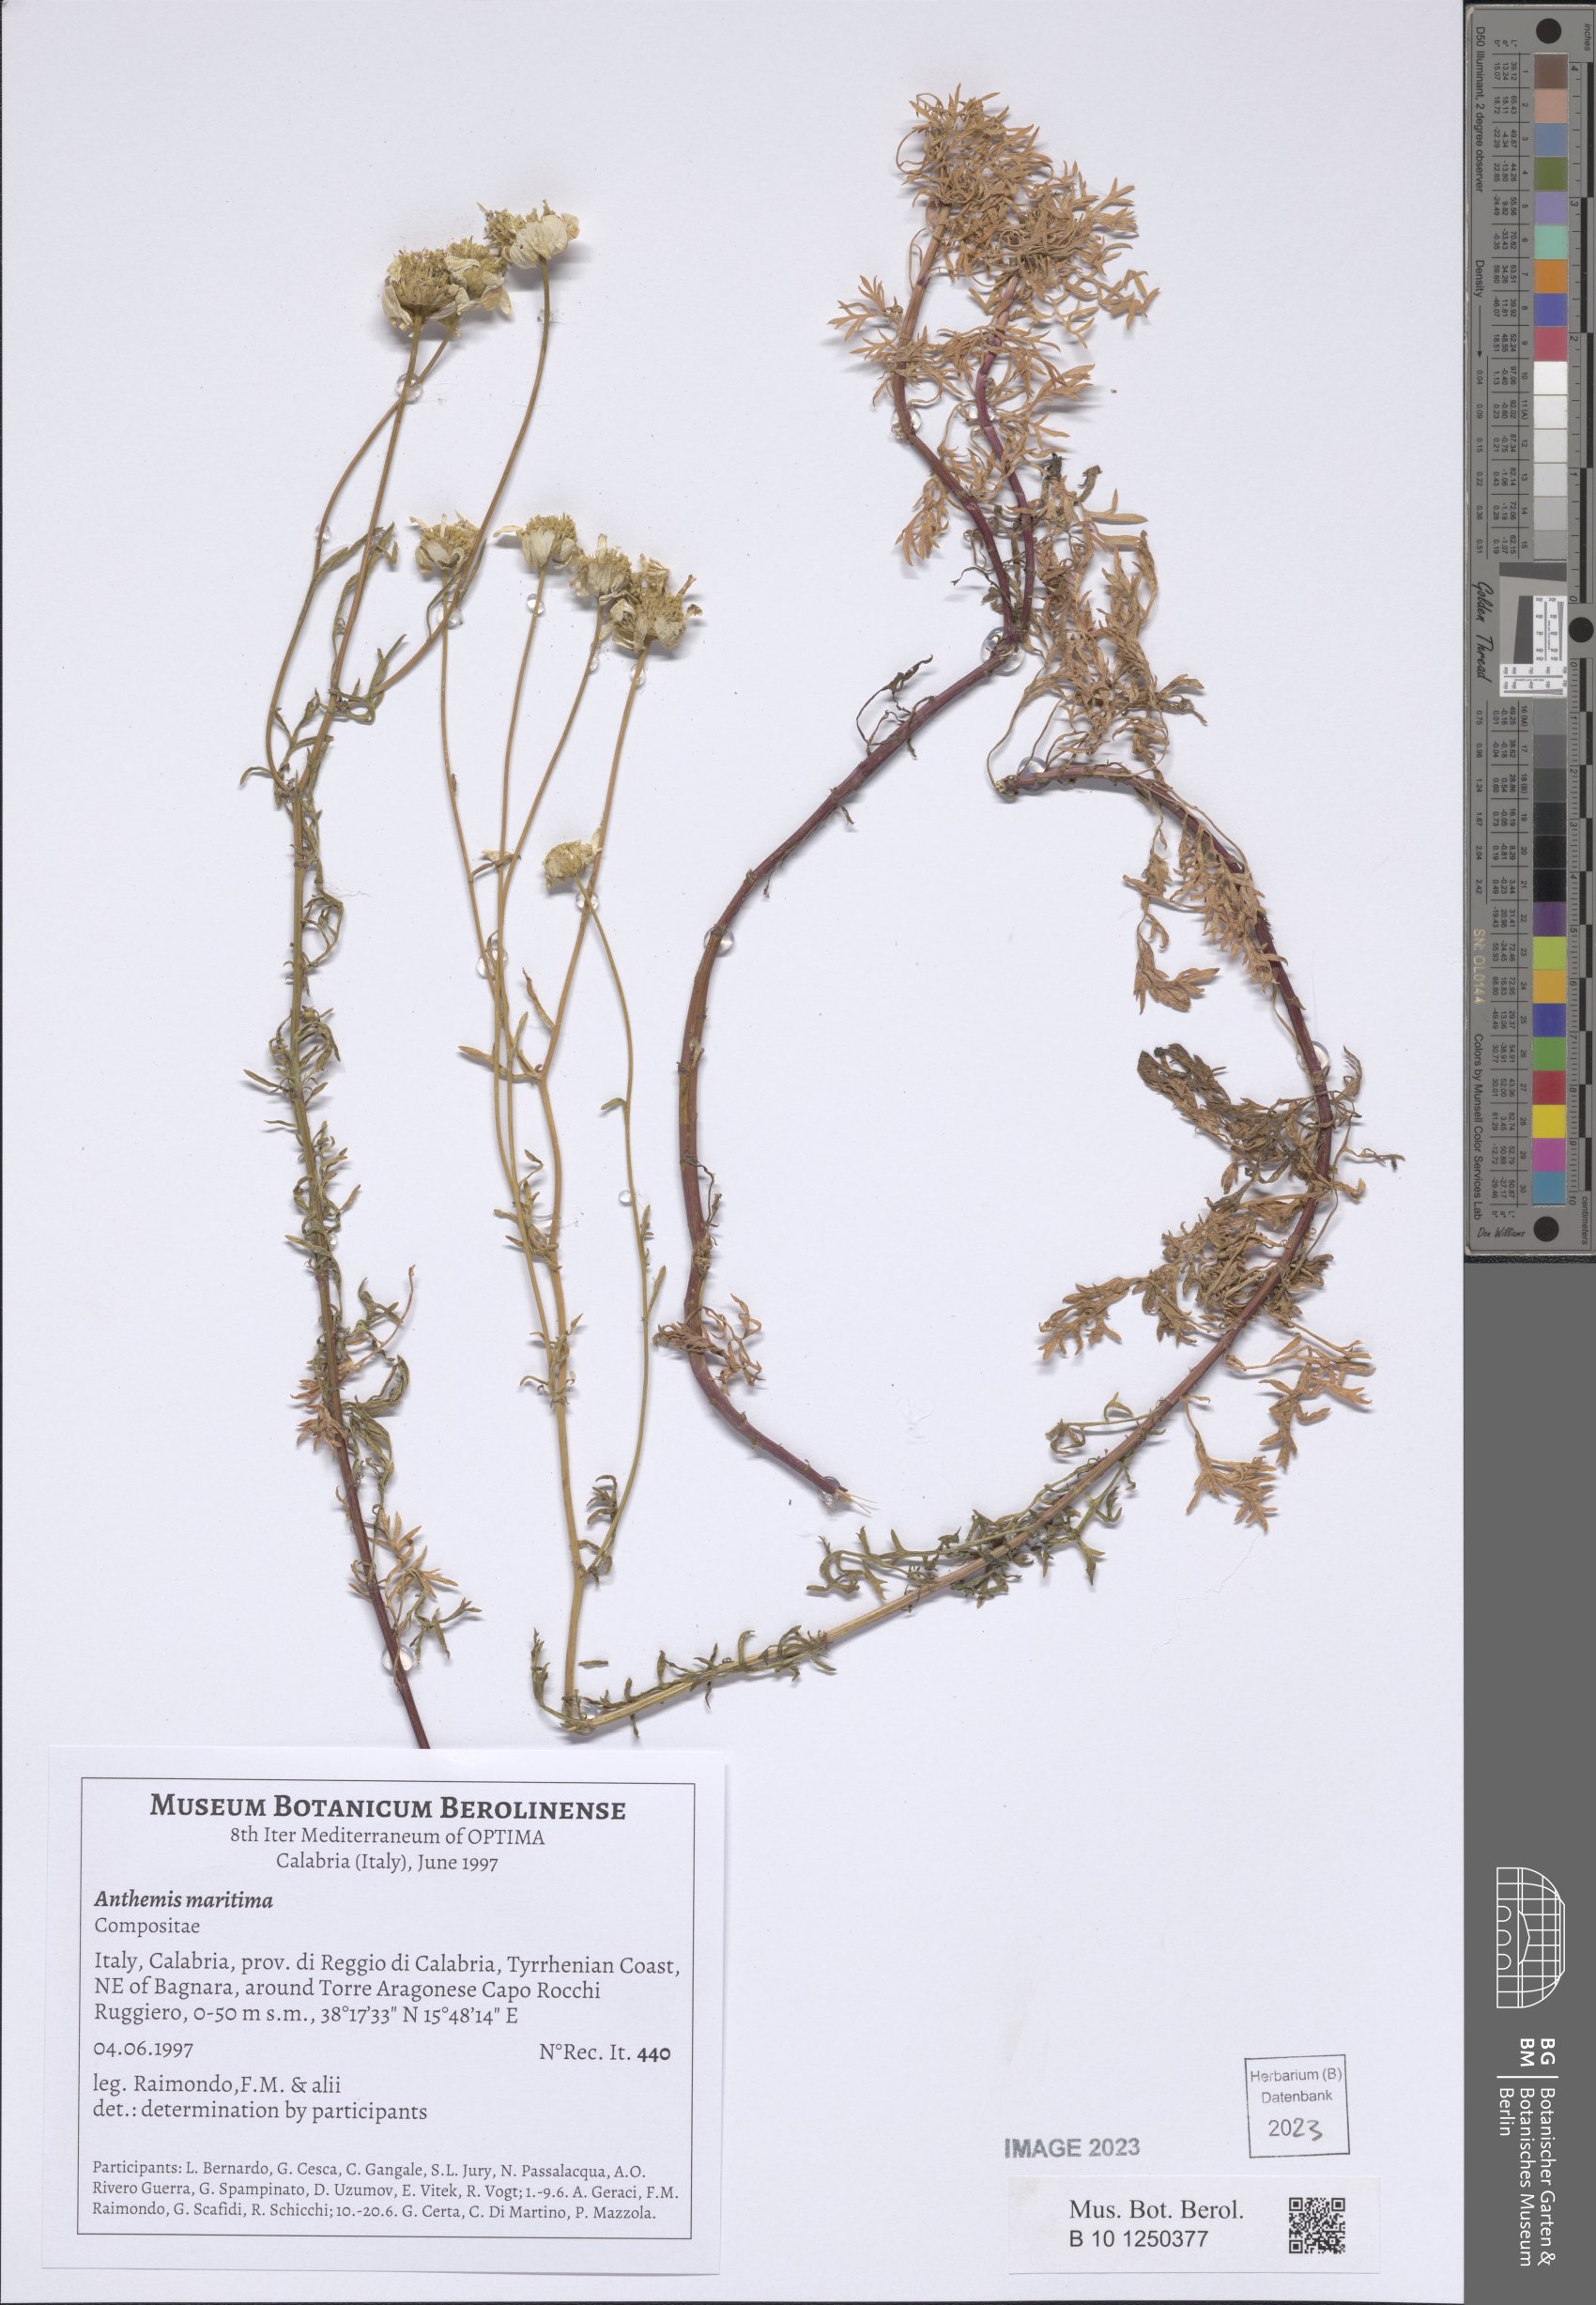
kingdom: Plantae
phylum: Tracheophyta
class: Magnoliopsida
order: Asterales
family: Asteraceae
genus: Anthemis
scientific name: Anthemis maritima
